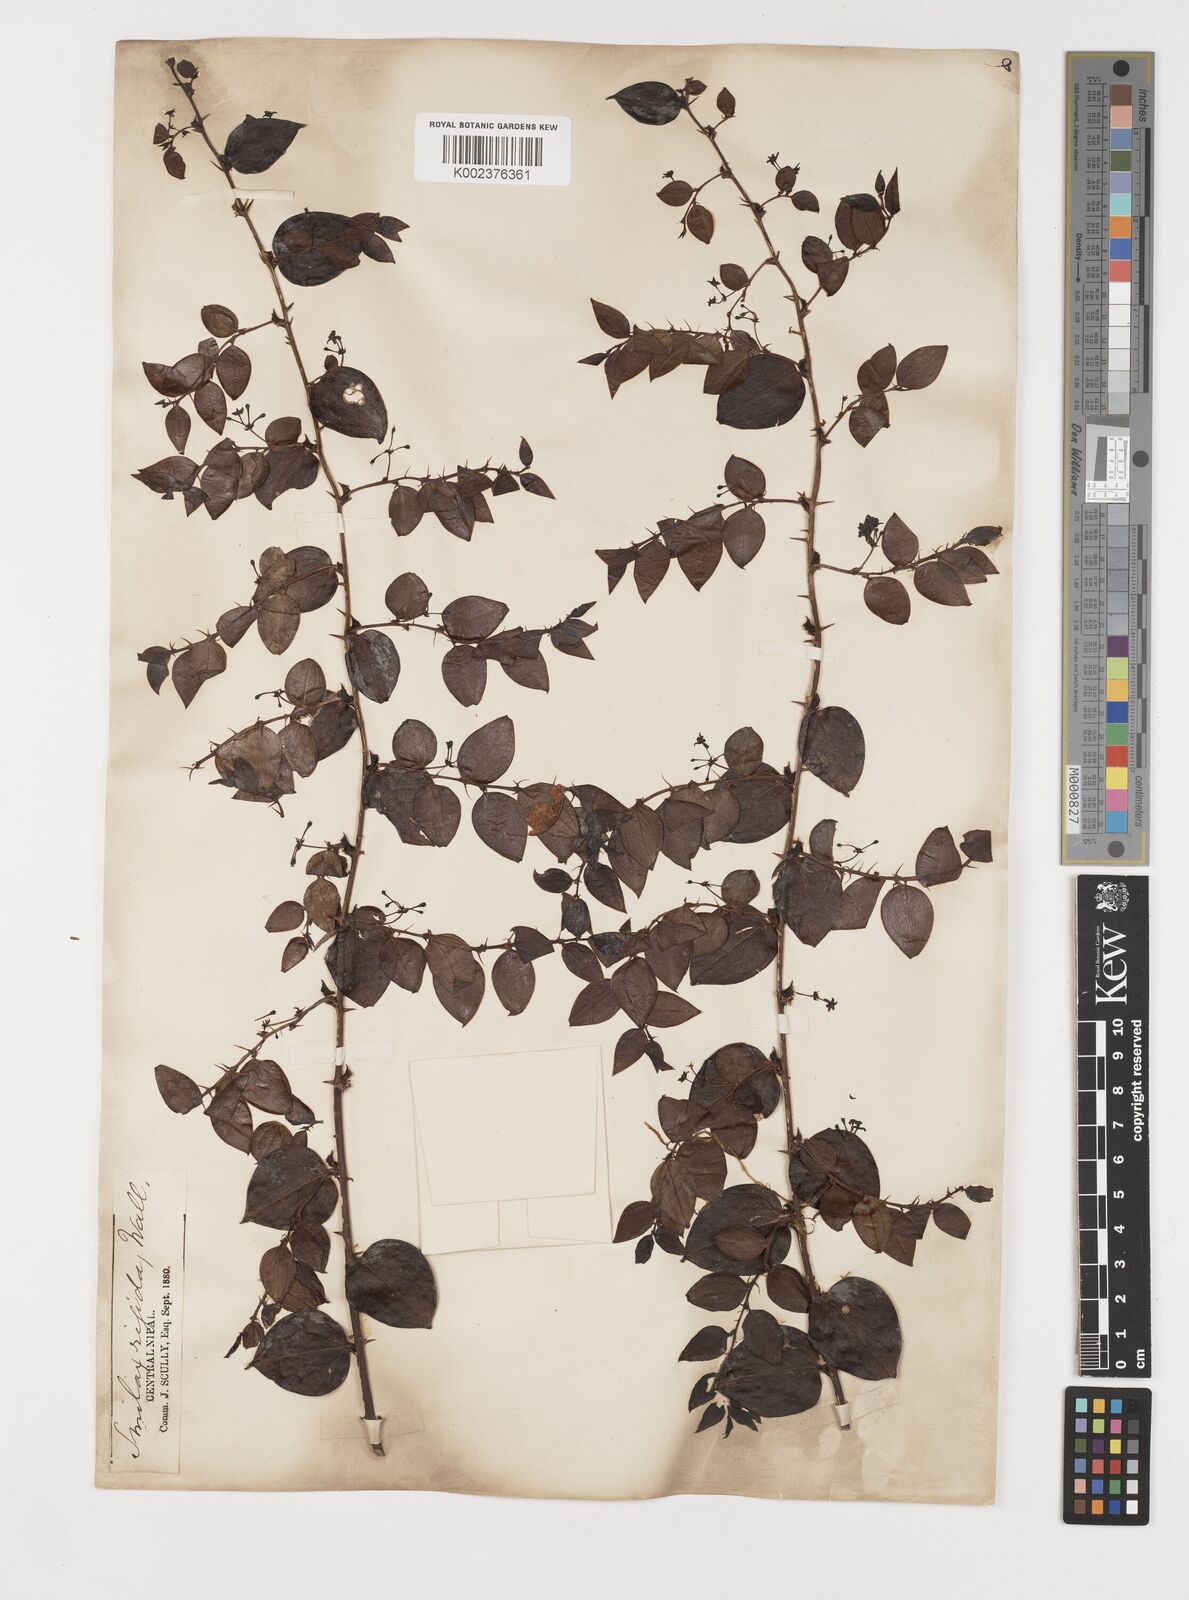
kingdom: Plantae
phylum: Tracheophyta
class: Liliopsida
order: Liliales
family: Smilacaceae
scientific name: Smilacaceae
